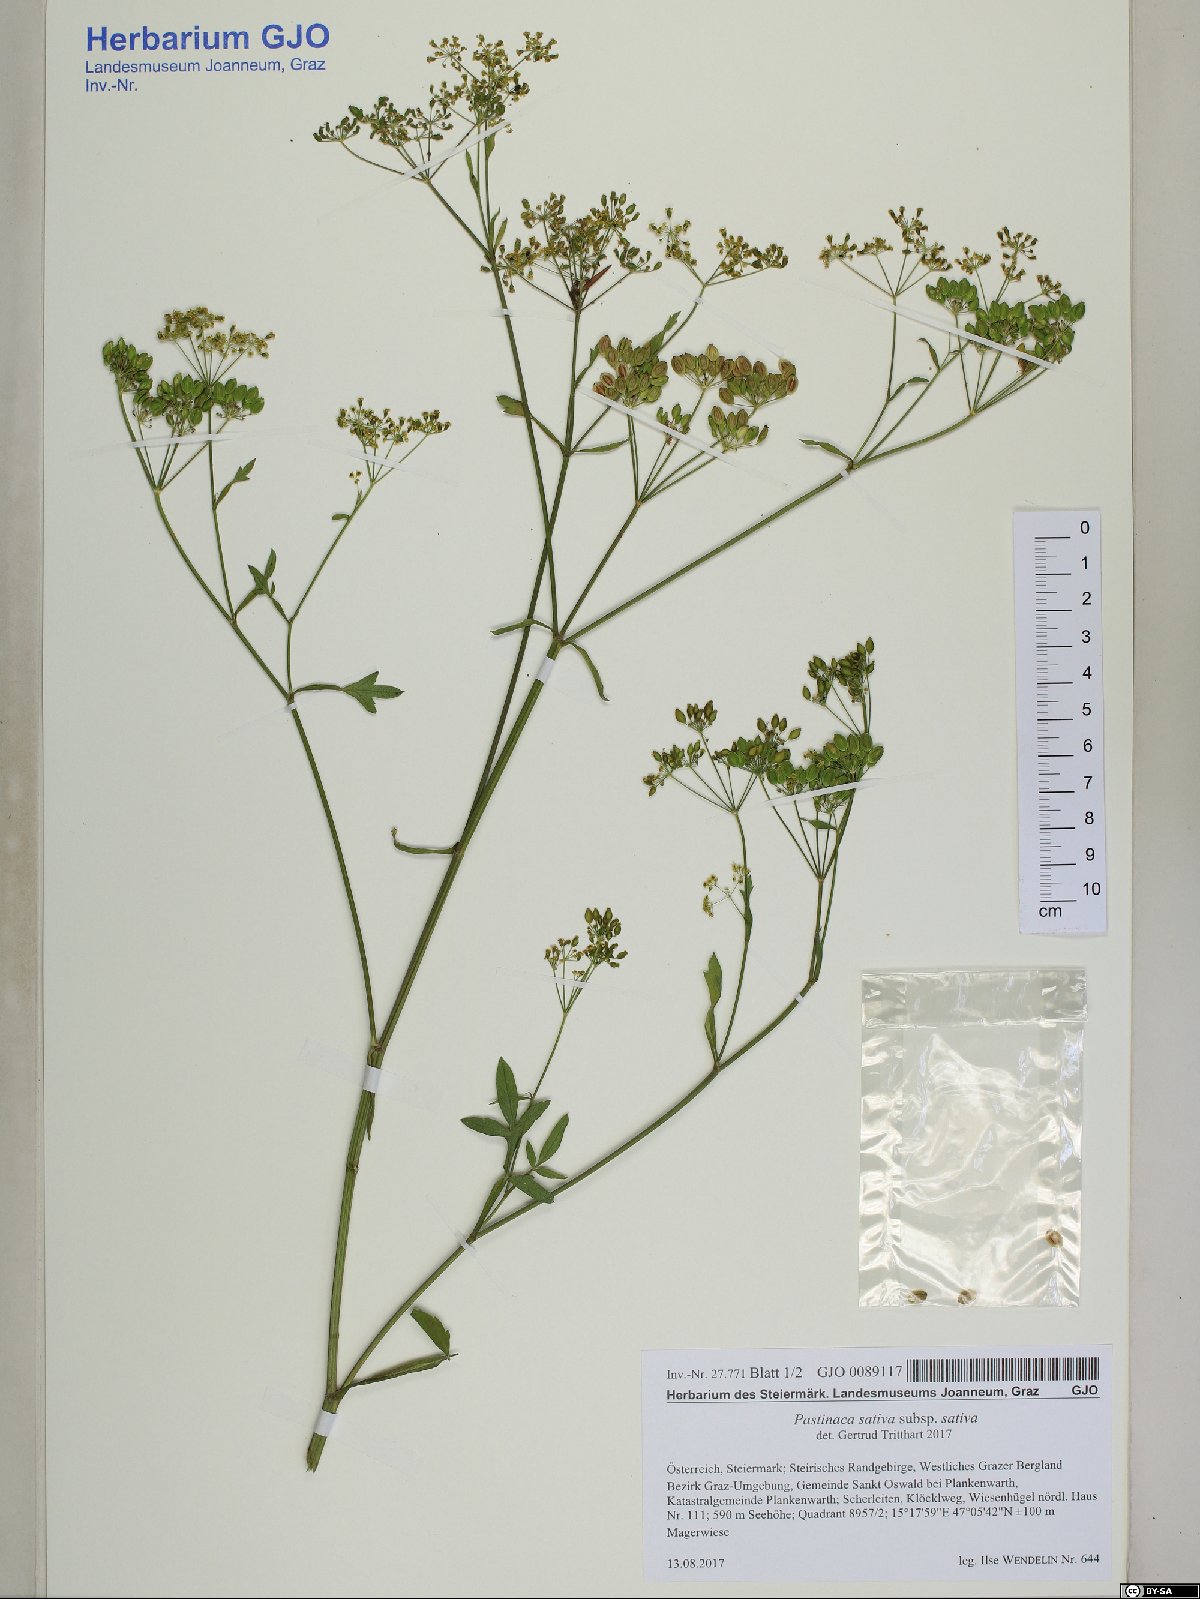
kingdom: Plantae
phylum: Tracheophyta
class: Magnoliopsida
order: Apiales
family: Apiaceae
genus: Pastinaca
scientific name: Pastinaca sativa
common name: Wild parsnip
